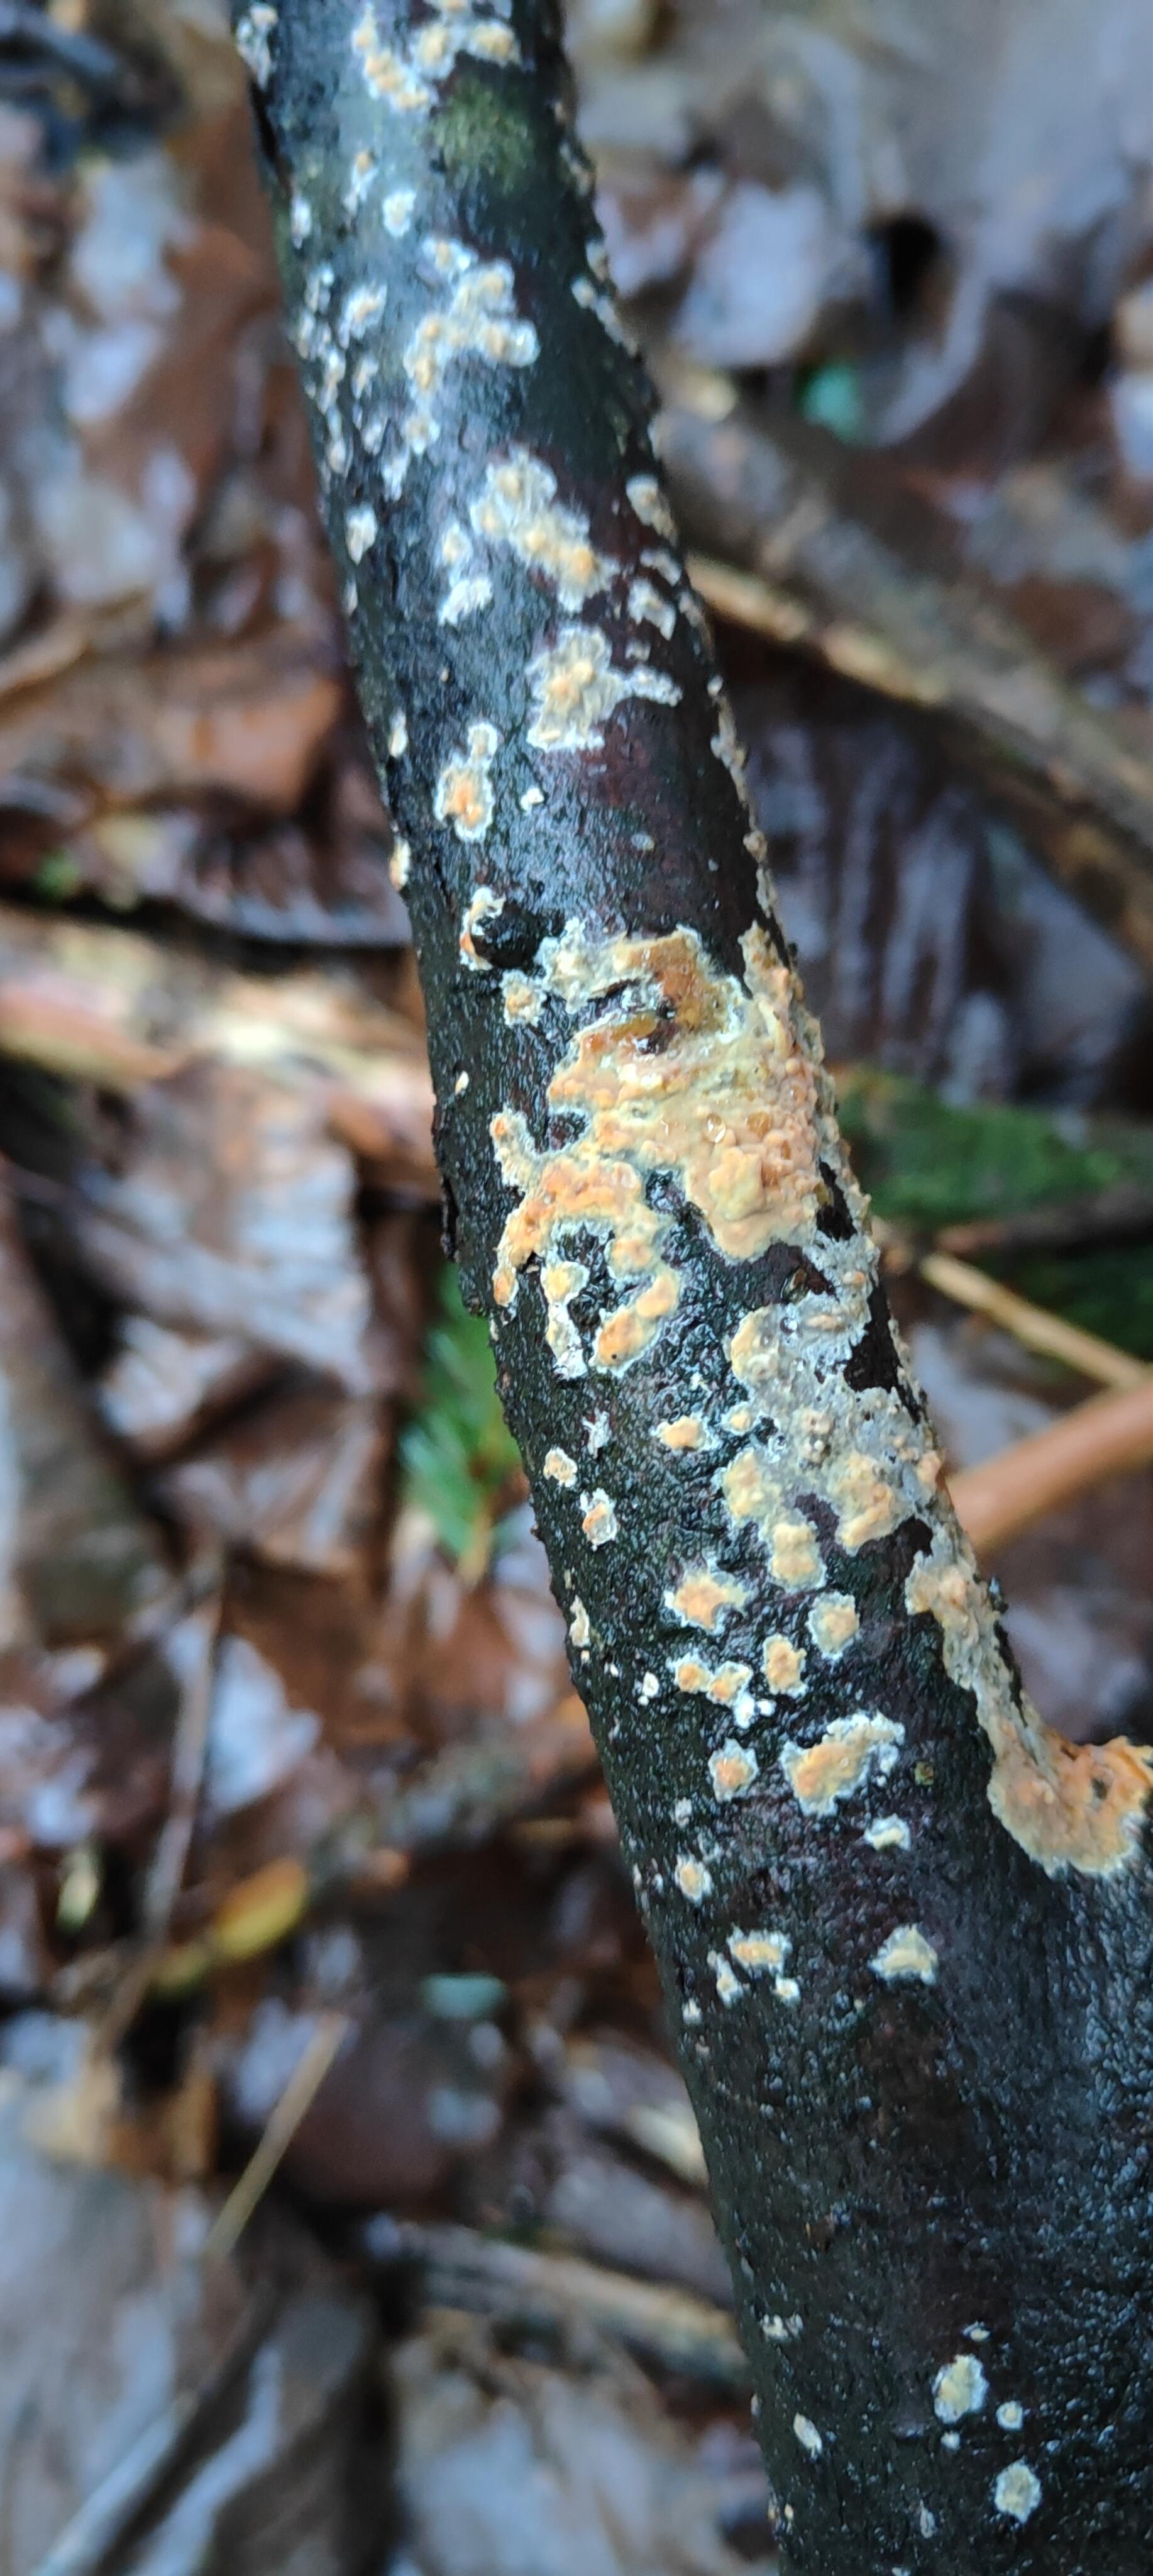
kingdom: Fungi
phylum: Basidiomycota
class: Agaricomycetes
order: Russulales
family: Peniophoraceae
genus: Peniophora
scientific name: Peniophora incarnata
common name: laksefarvet voksskind
